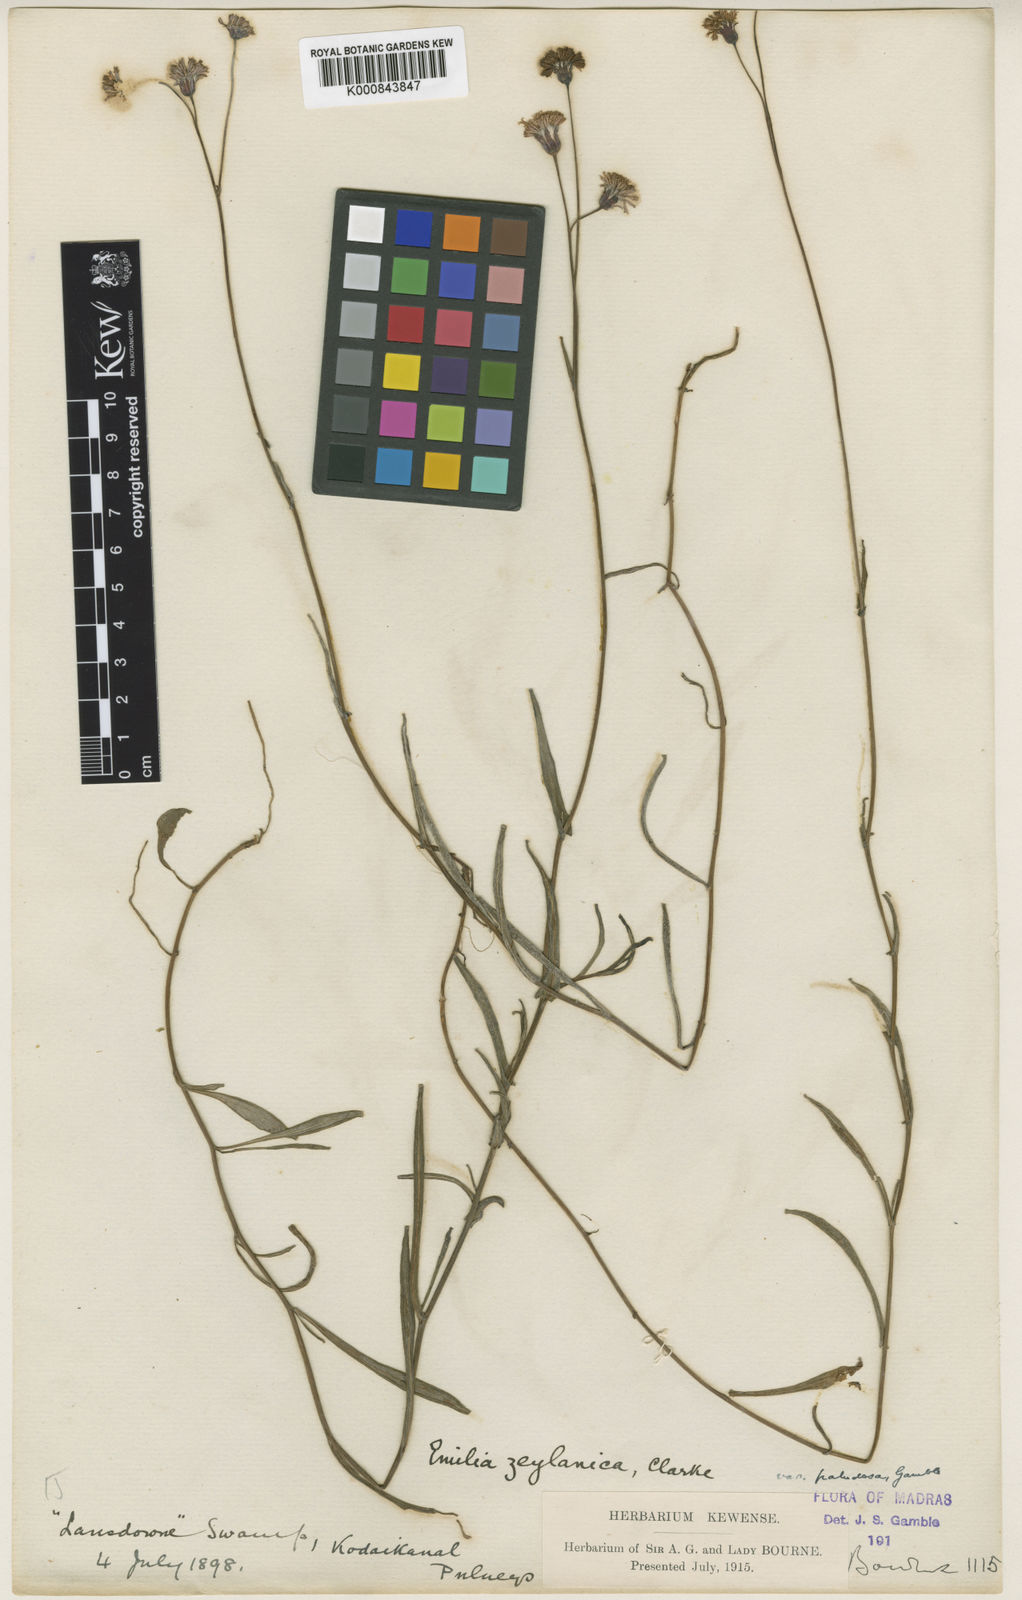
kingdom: Plantae
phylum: Tracheophyta
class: Magnoliopsida
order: Asterales
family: Asteraceae
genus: Emilia
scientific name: Emilia zeylanica
